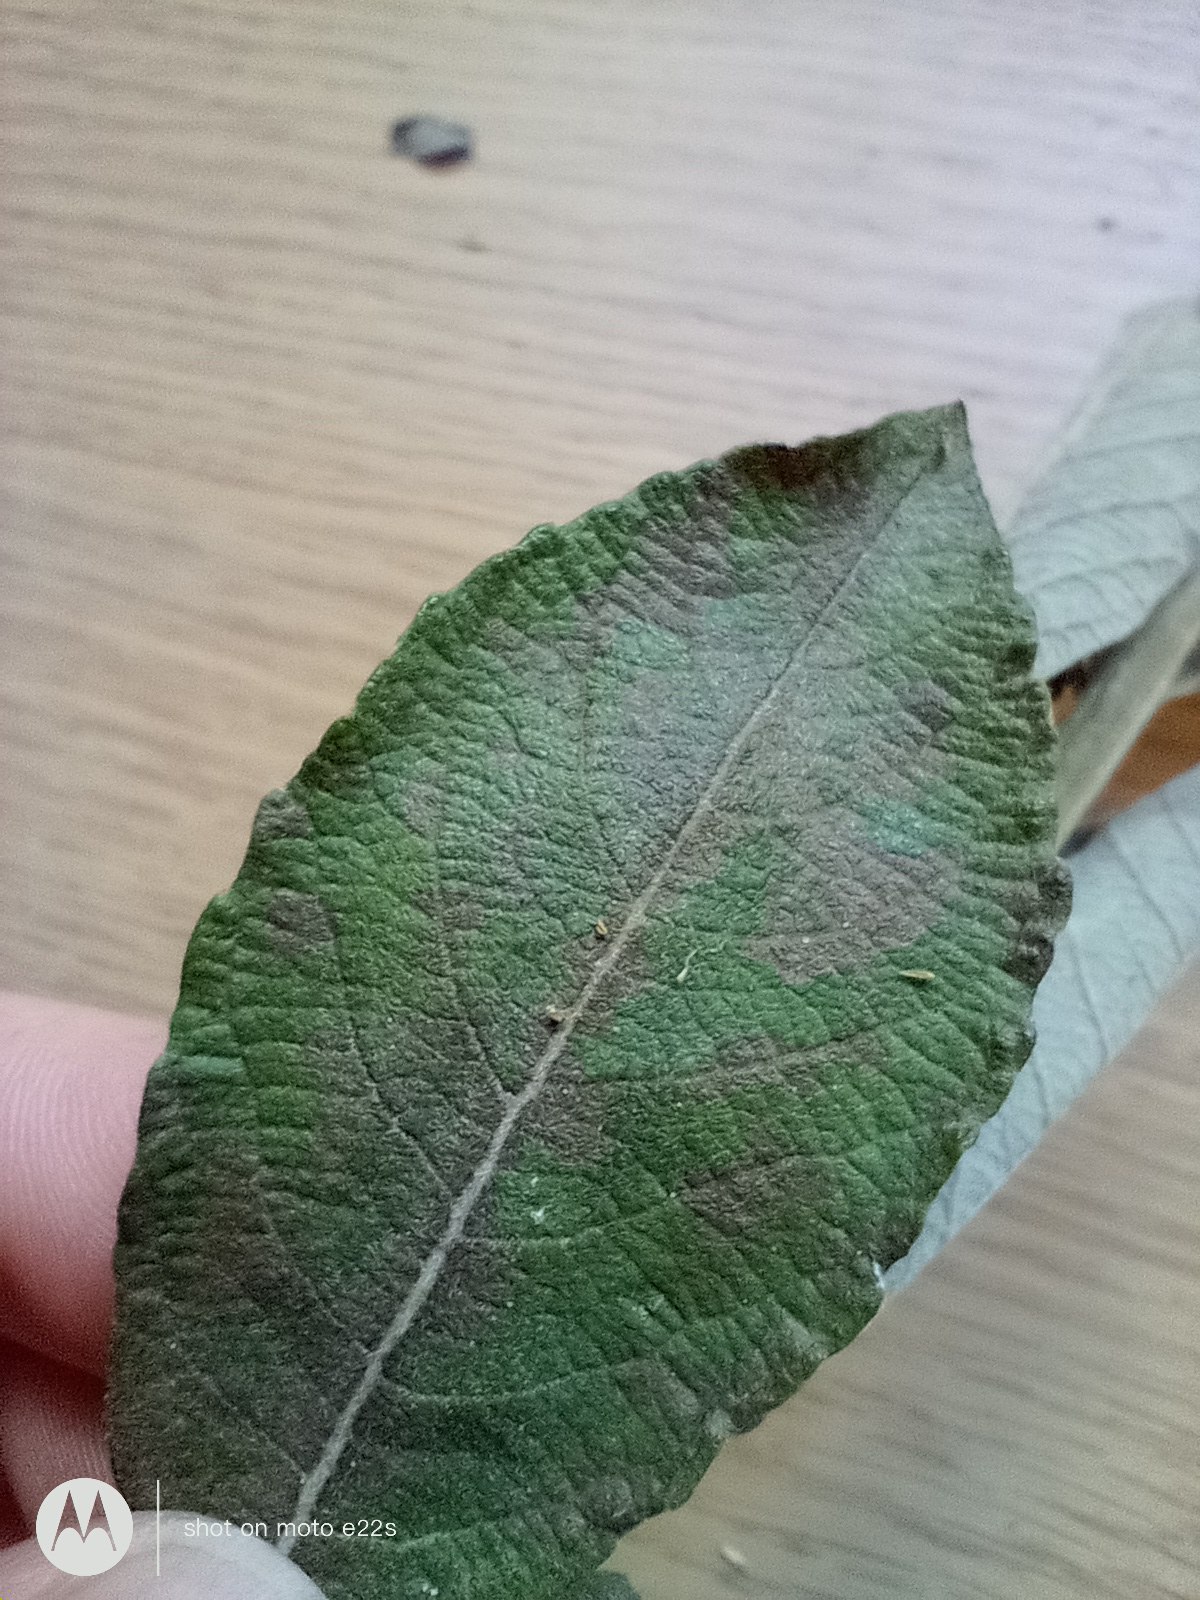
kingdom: Plantae
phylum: Tracheophyta
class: Magnoliopsida
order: Malpighiales
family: Salicaceae
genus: Salix
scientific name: Salix cinerea
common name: Grå-pil
